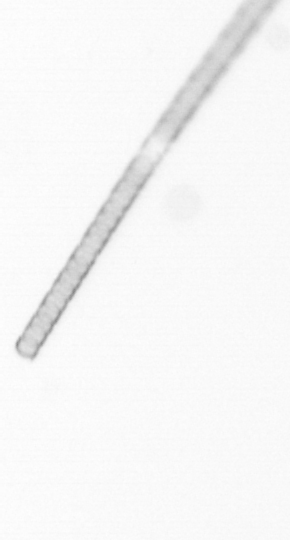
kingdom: Chromista
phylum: Ochrophyta
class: Bacillariophyceae
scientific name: Bacillariophyceae
